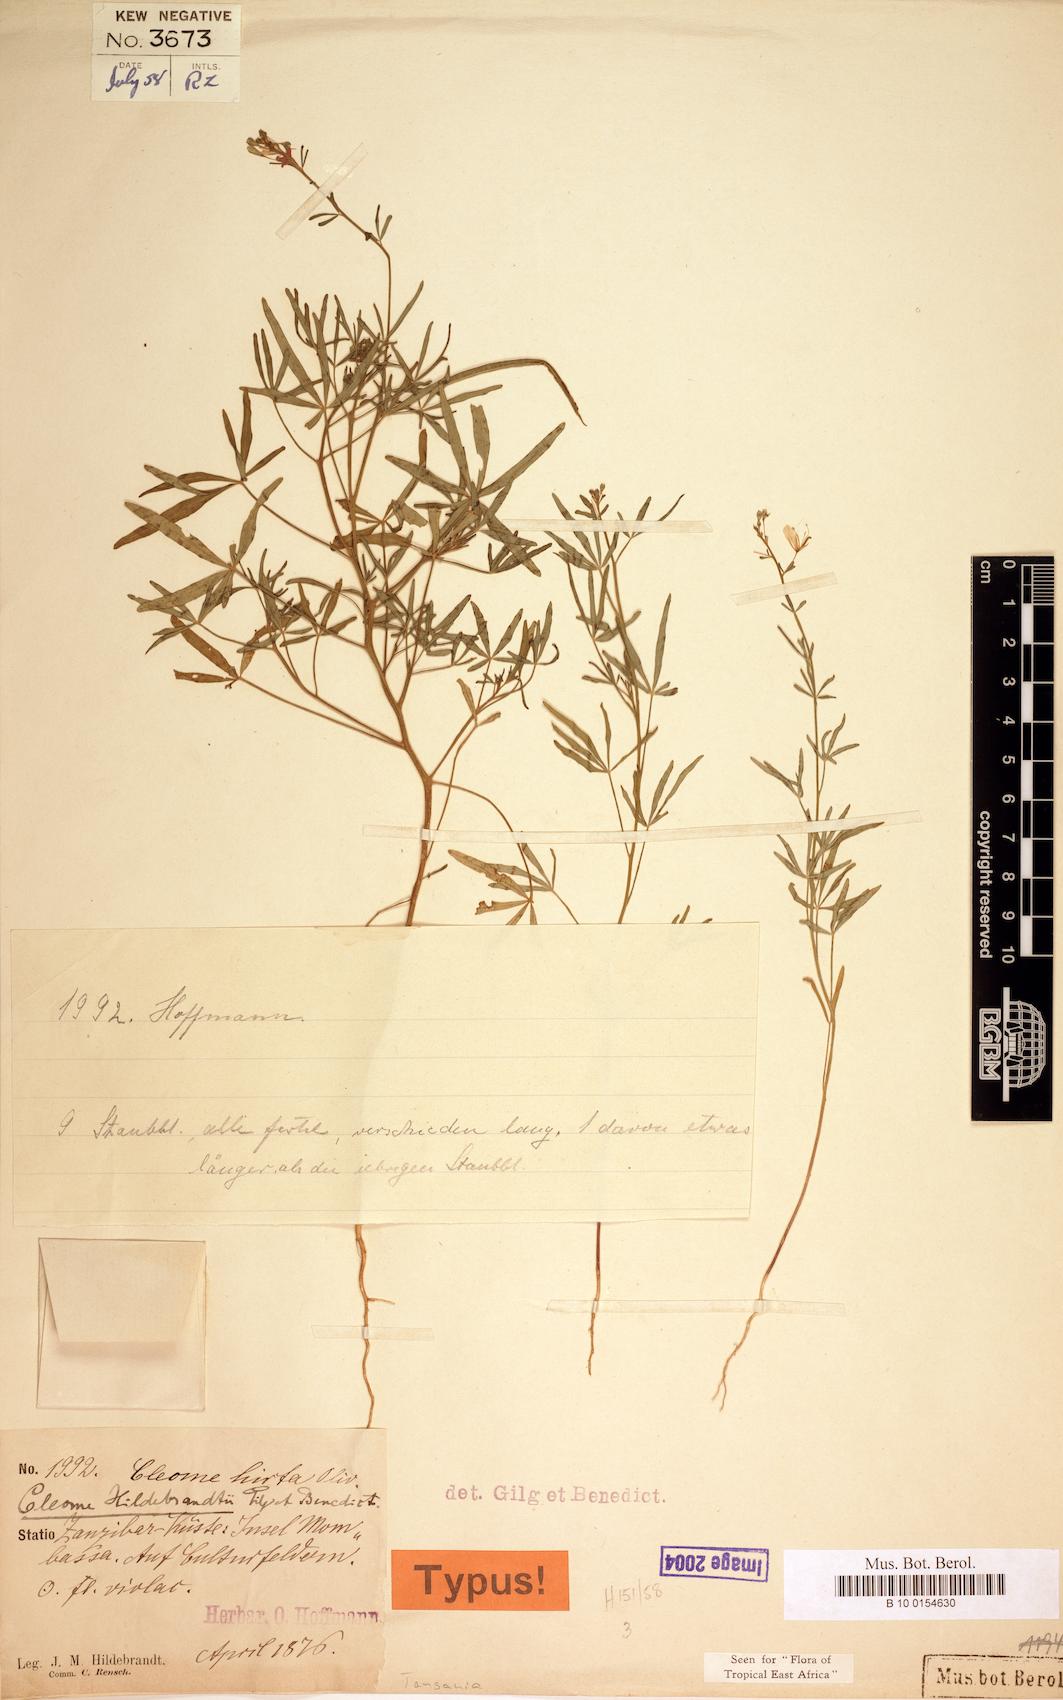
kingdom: Plantae
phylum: Tracheophyta
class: Magnoliopsida
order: Brassicales
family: Cleomaceae
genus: Sieruela
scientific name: Sieruela hirta
